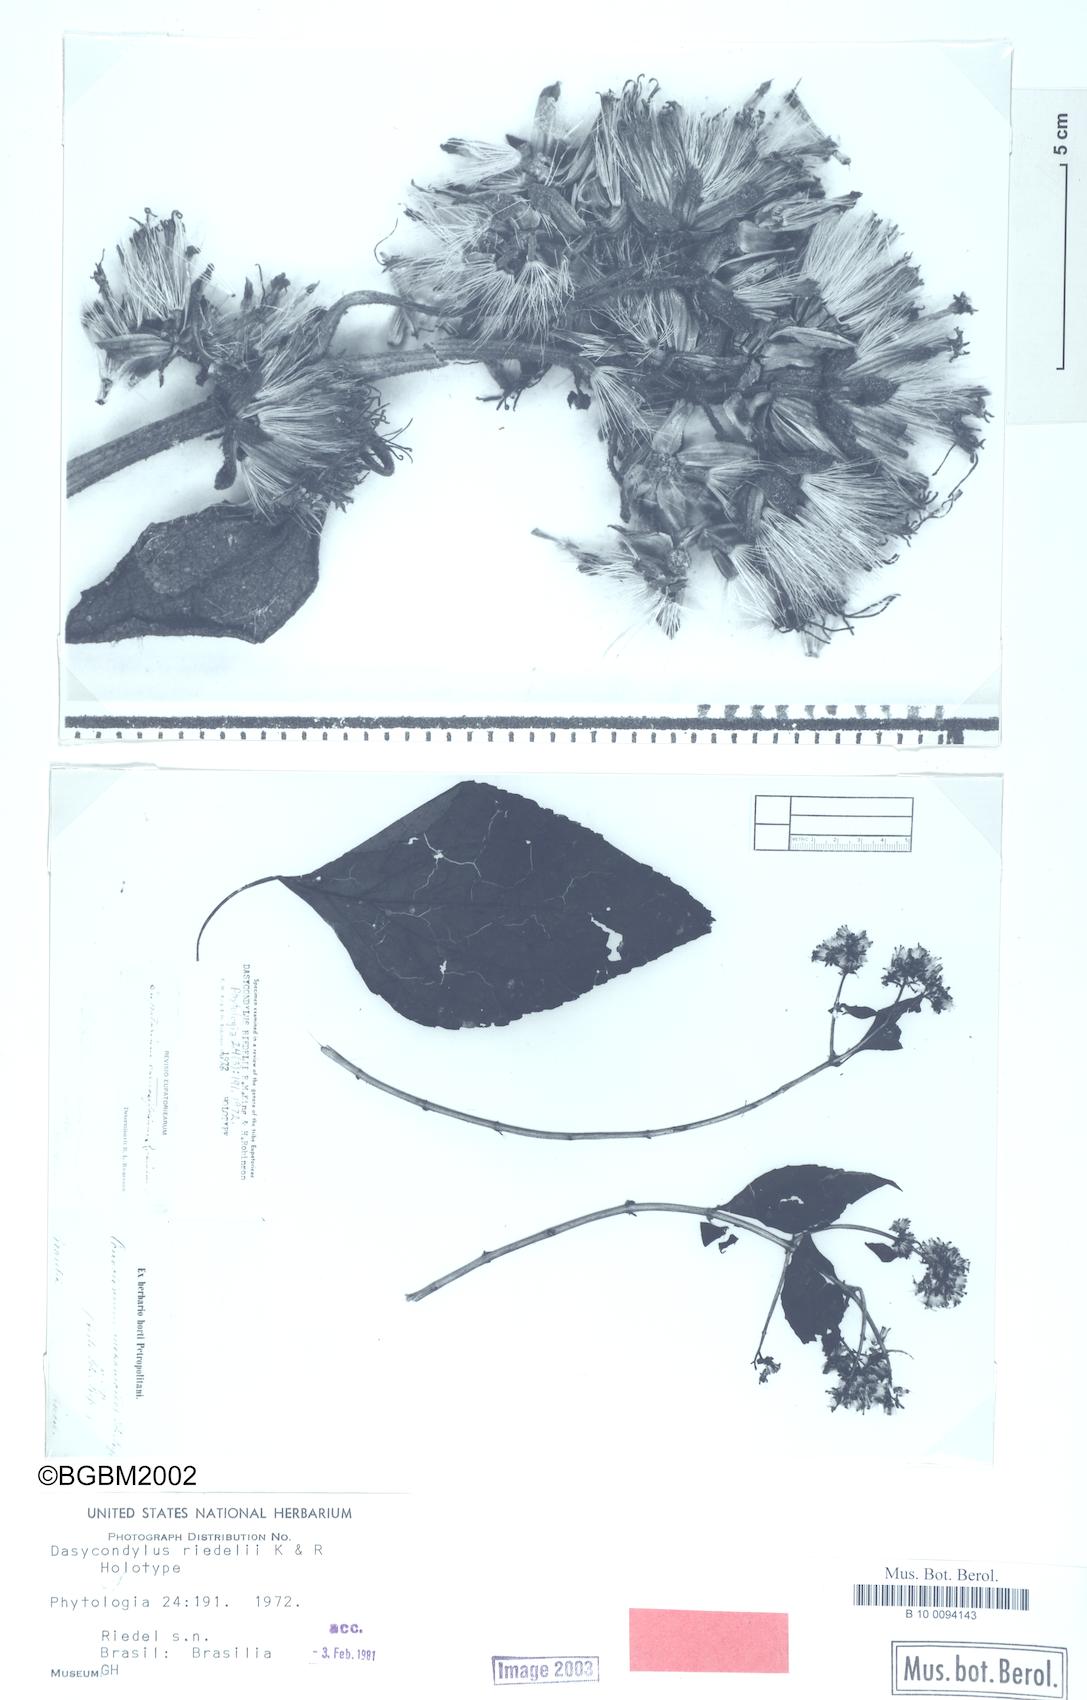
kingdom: Plantae
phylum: Tracheophyta
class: Magnoliopsida
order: Asterales
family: Asteraceae
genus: Dasycondylus
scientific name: Dasycondylus riedelii
